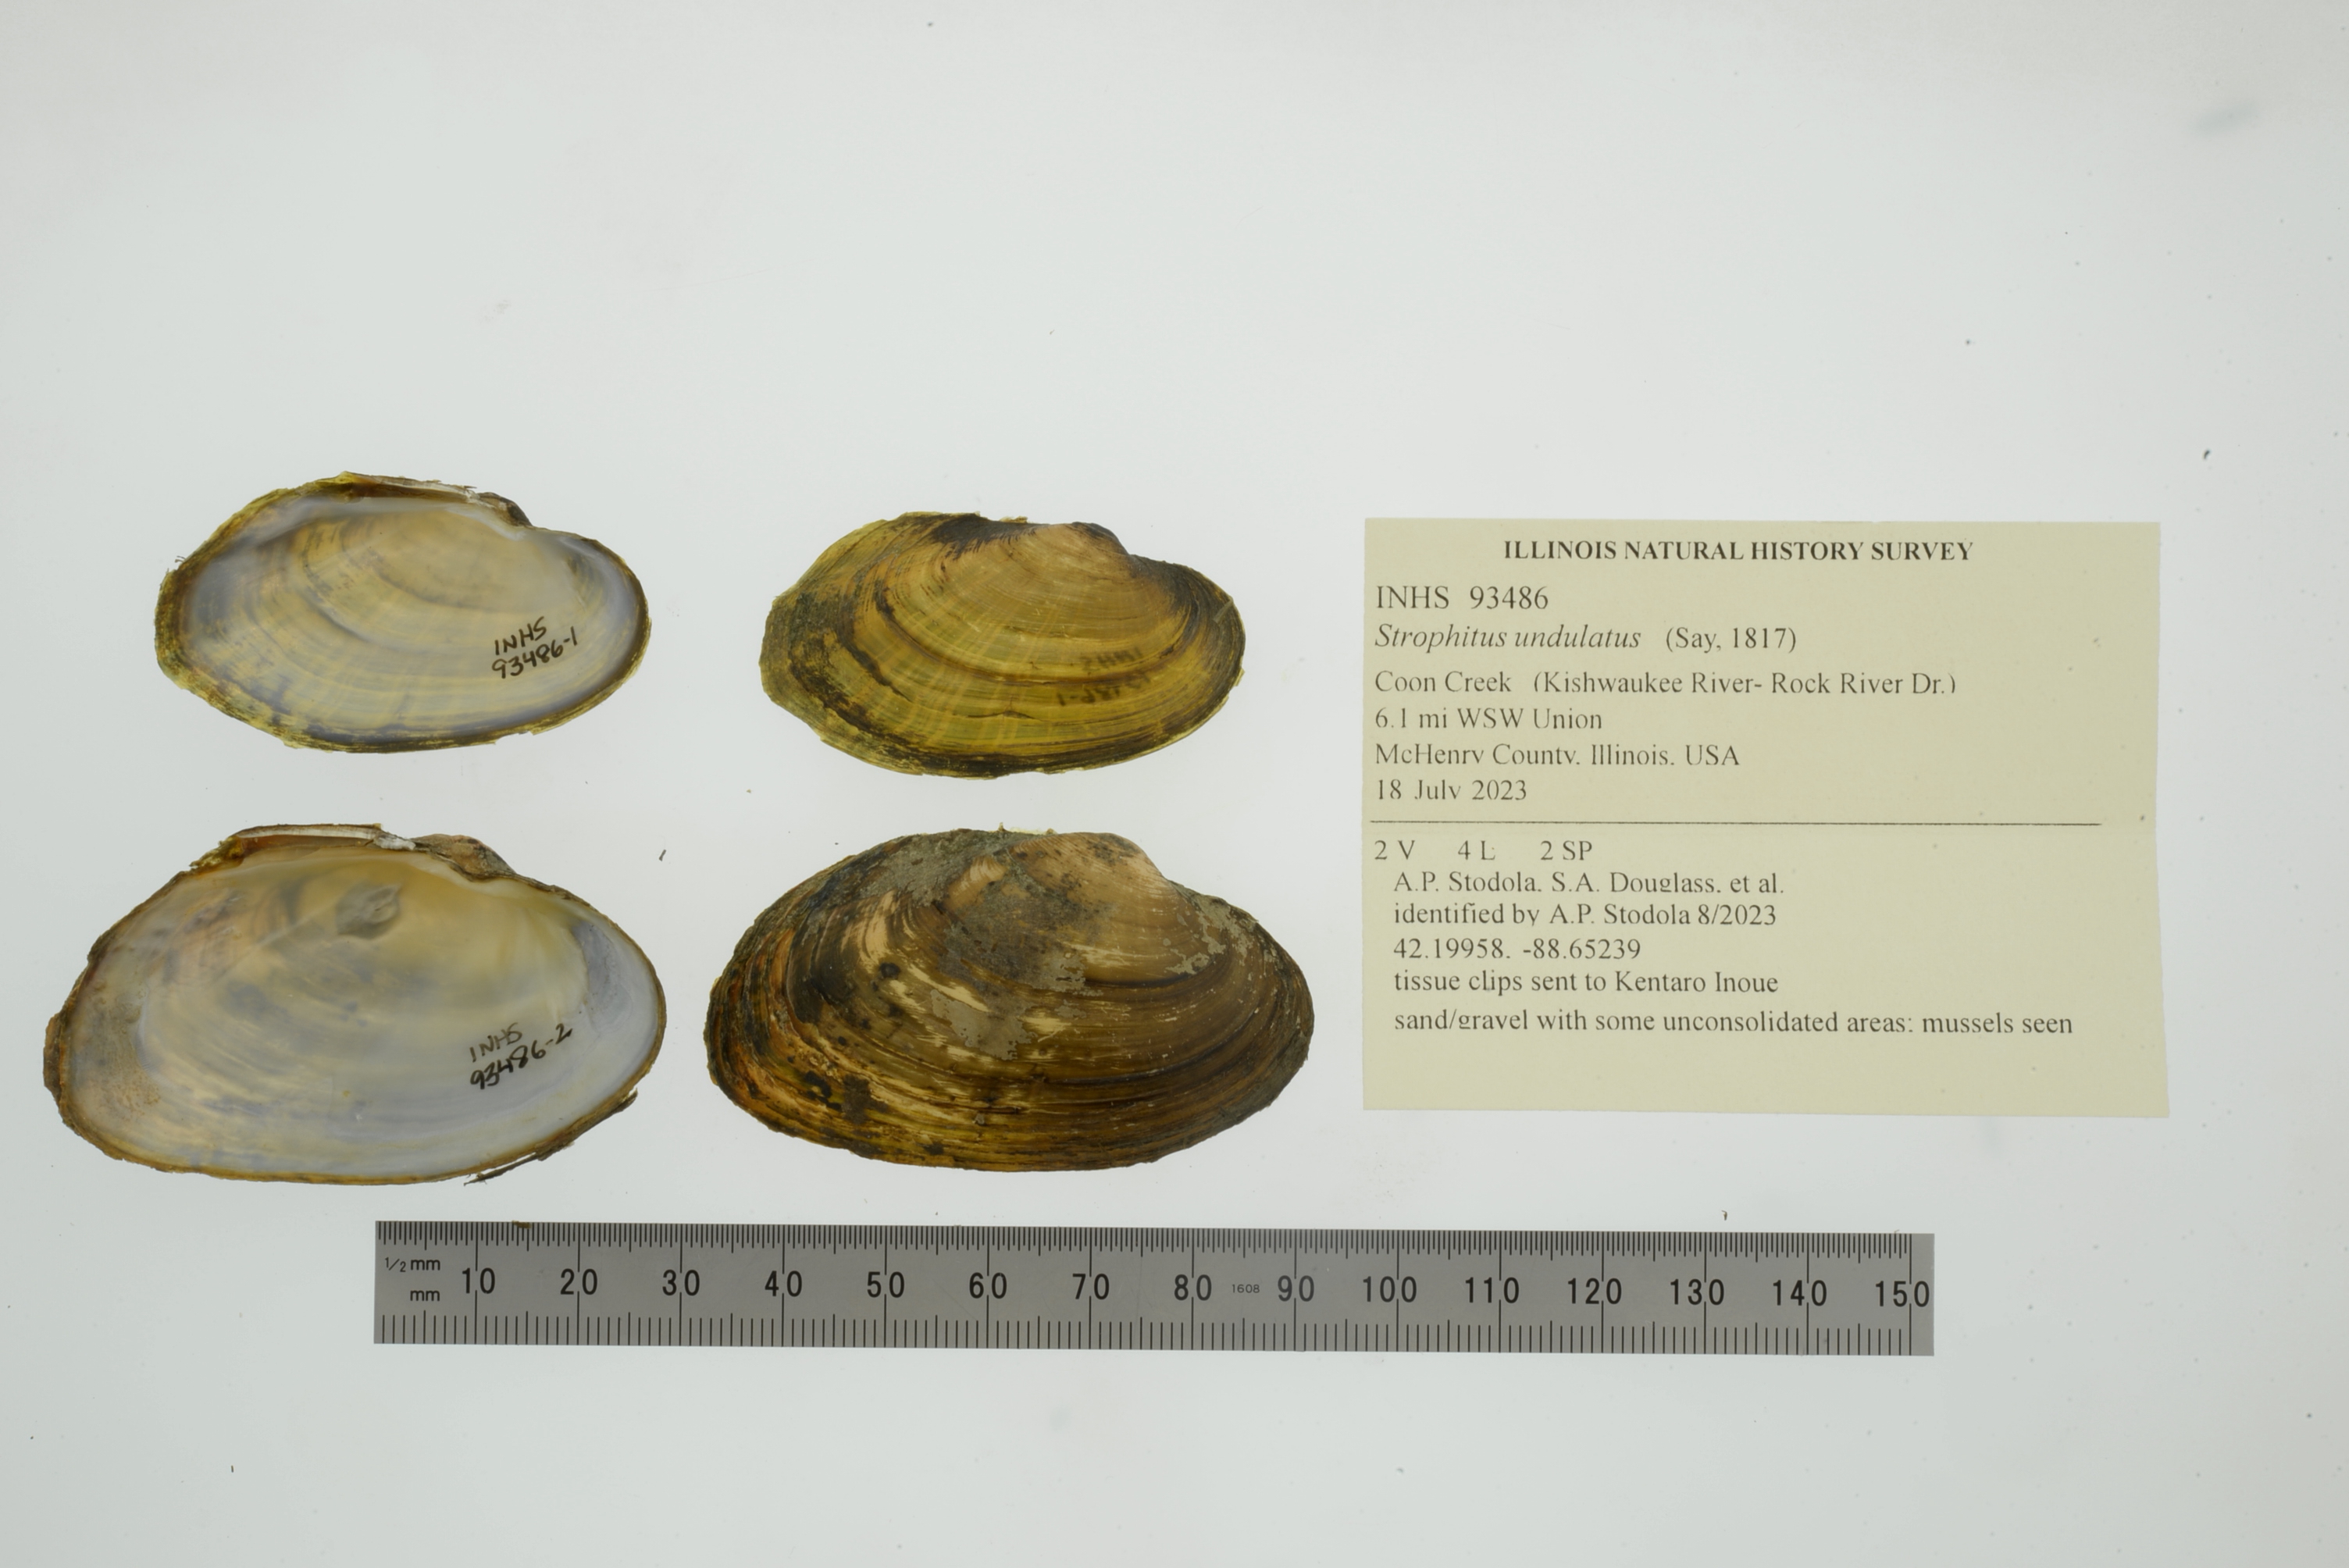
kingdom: Animalia
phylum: Mollusca
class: Bivalvia
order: Unionida
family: Unionidae
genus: Strophitus
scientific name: Strophitus undulatus
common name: Creeper
